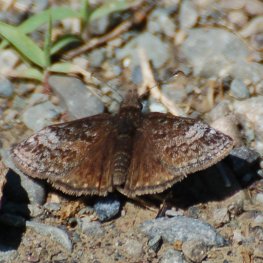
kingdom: Animalia
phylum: Arthropoda
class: Insecta
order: Lepidoptera
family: Hesperiidae
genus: Erynnis
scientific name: Erynnis icelus
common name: Dreamy Duskywing
